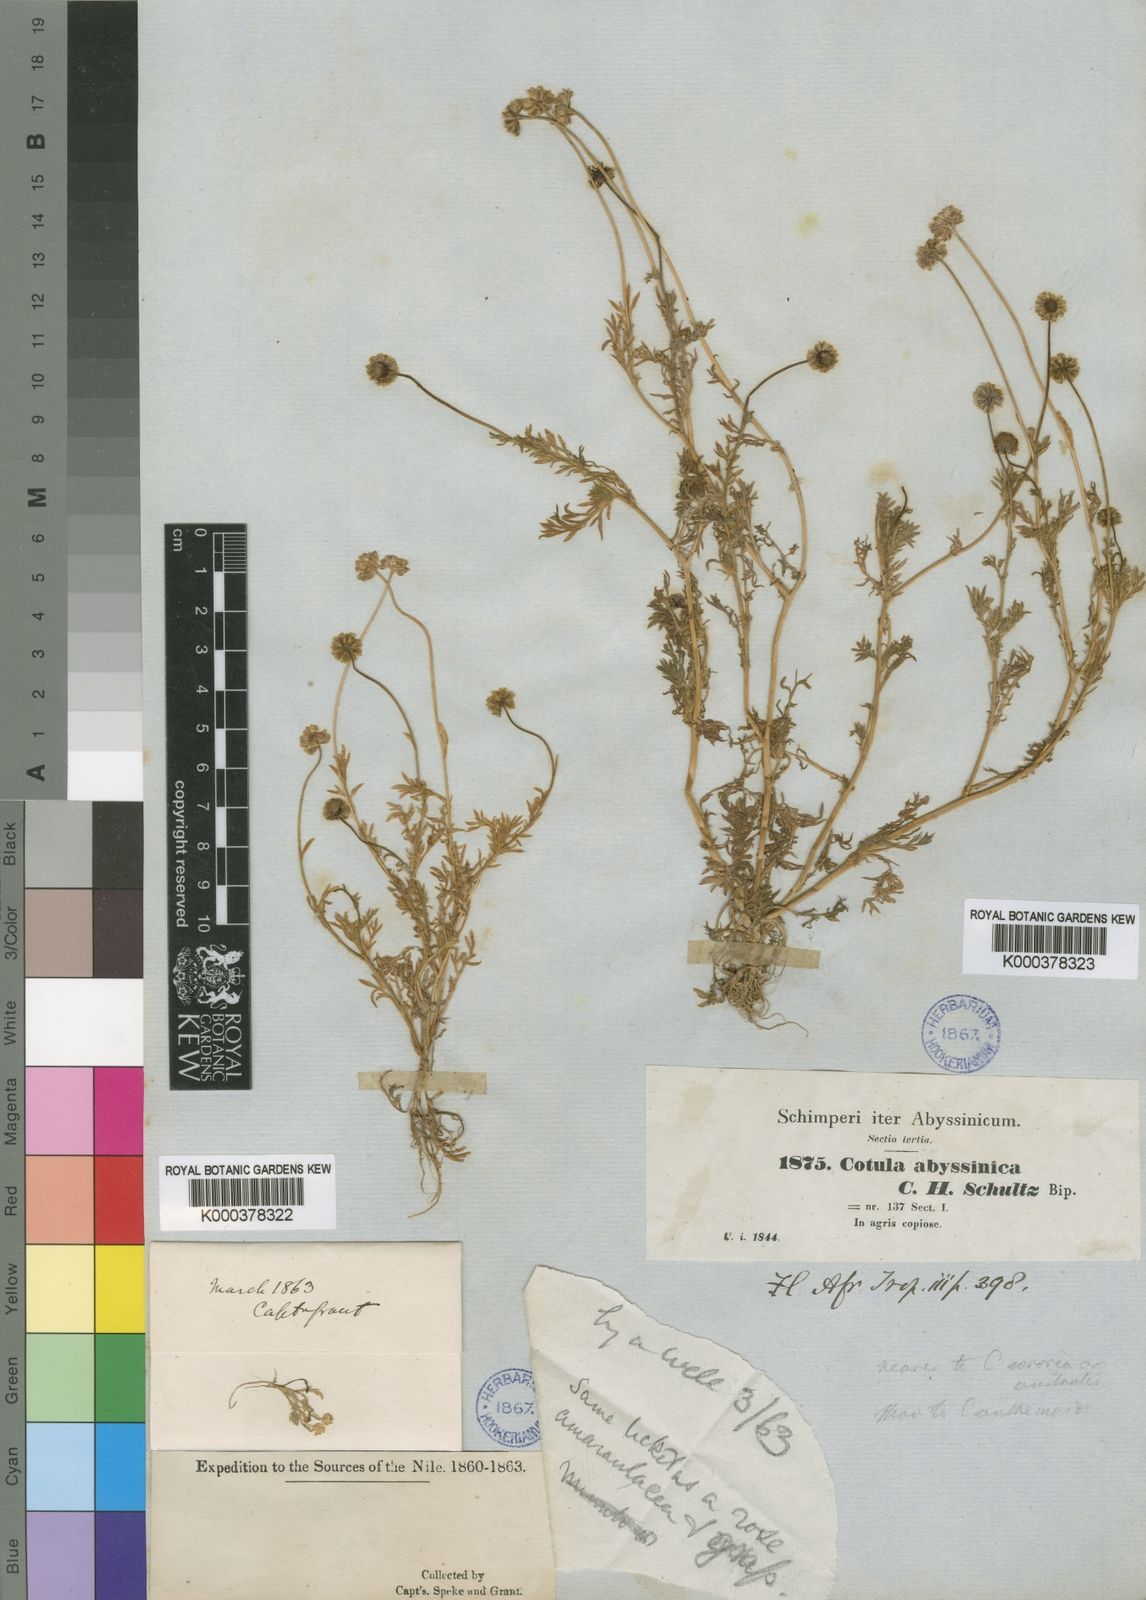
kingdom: Plantae
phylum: Tracheophyta
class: Magnoliopsida
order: Asterales
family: Asteraceae
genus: Cotula
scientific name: Cotula abyssinica
